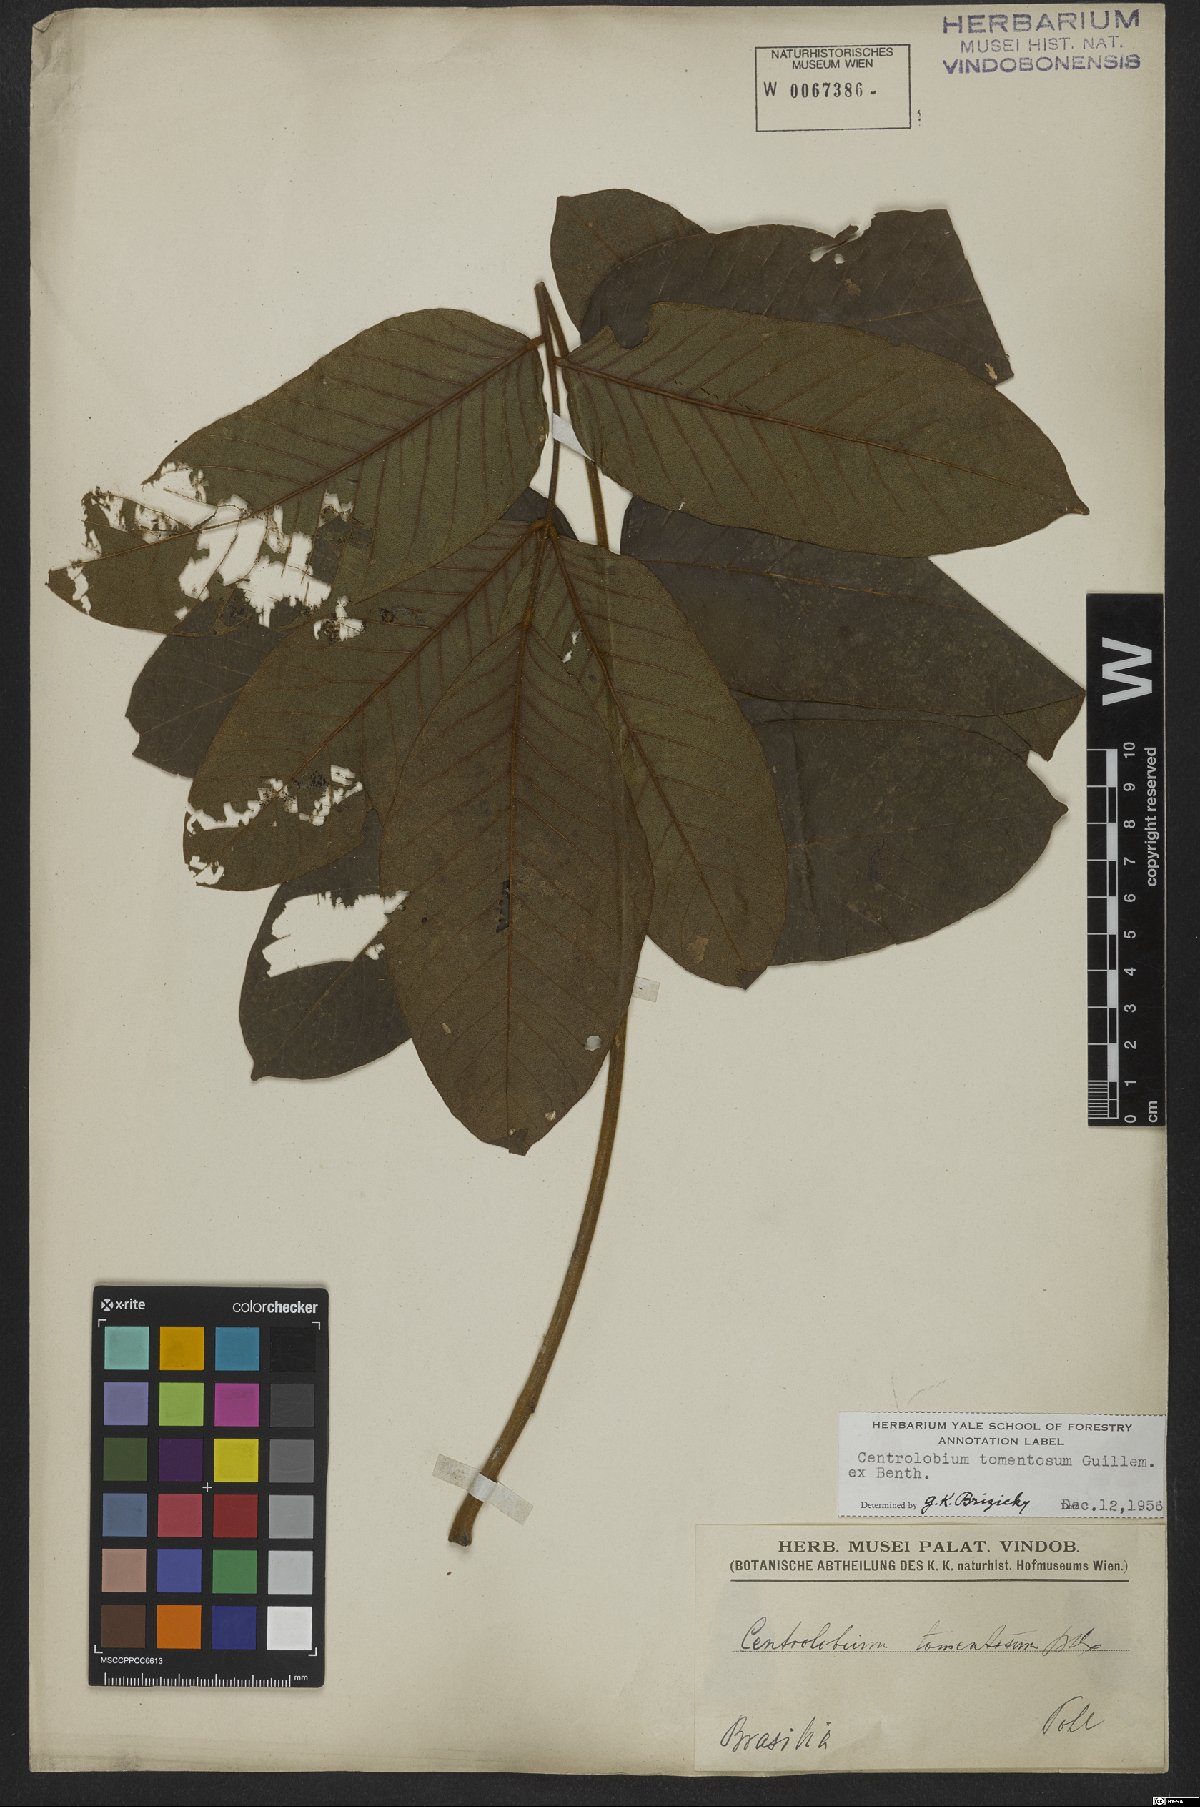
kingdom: Plantae
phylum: Tracheophyta
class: Magnoliopsida
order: Fabales
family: Fabaceae
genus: Centrolobium
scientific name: Centrolobium tomentosum
